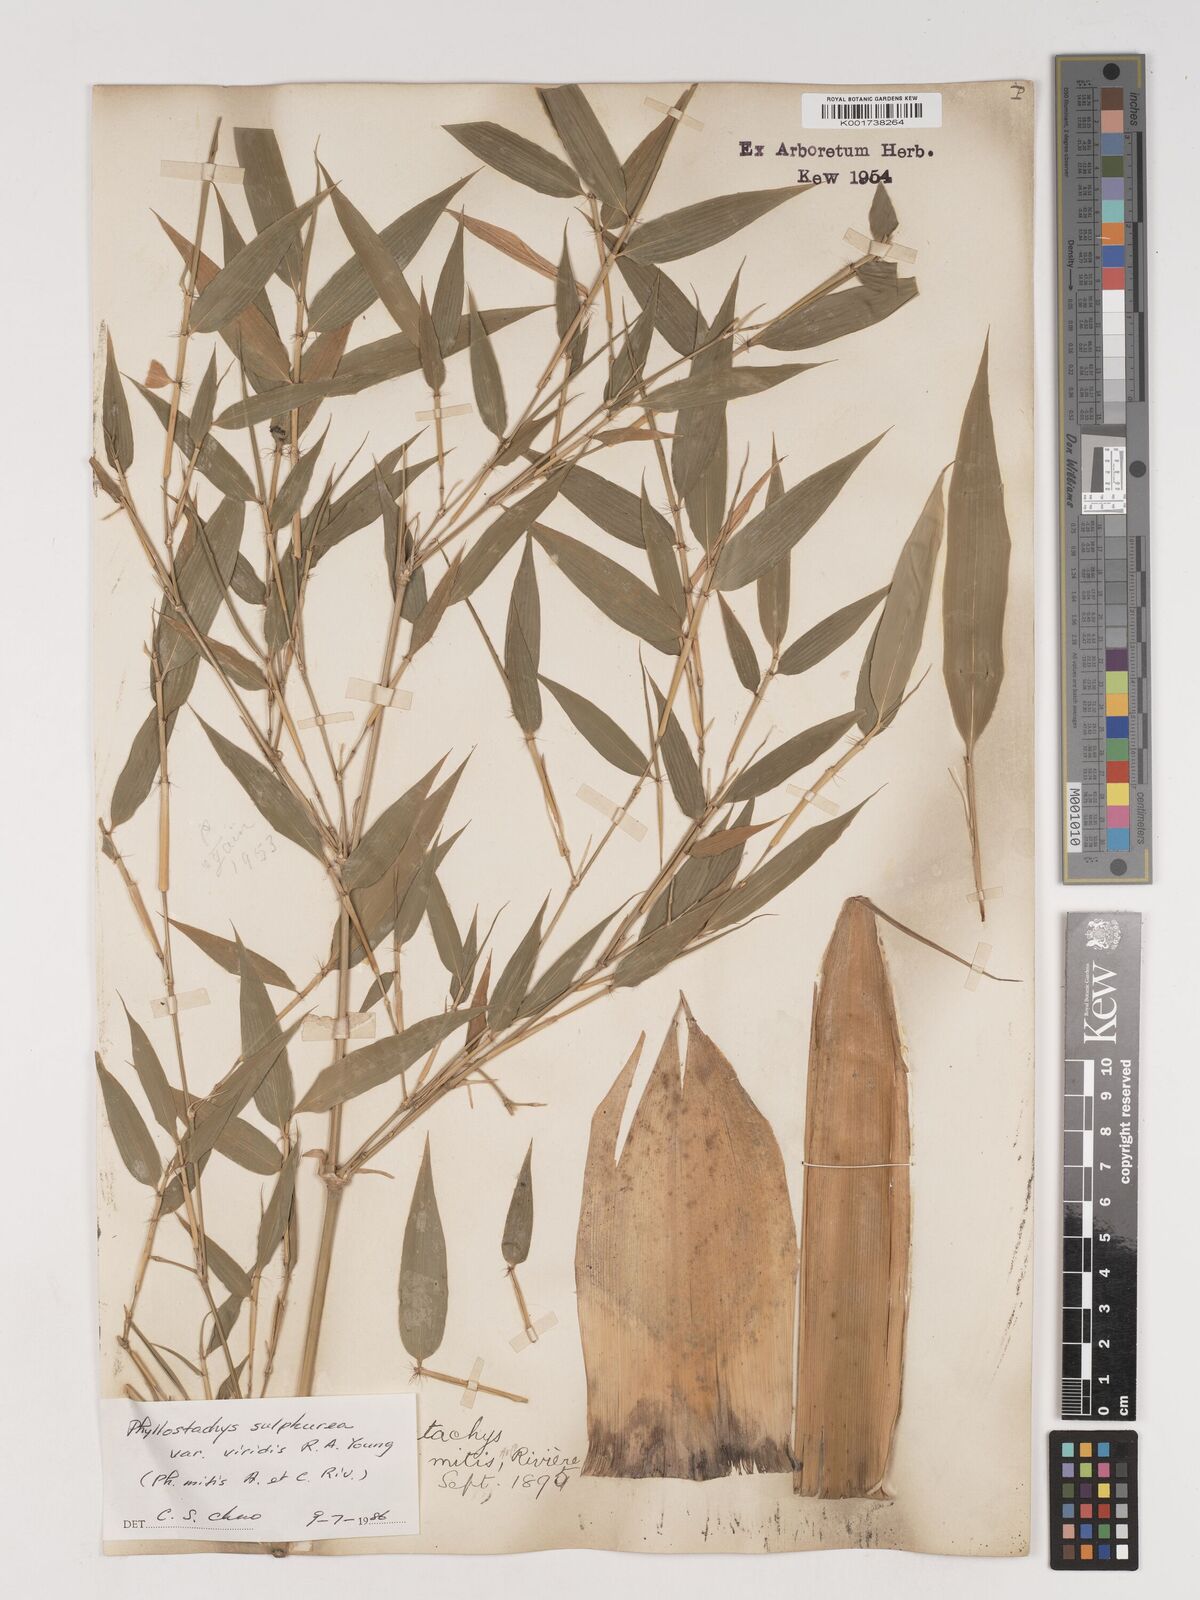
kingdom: Plantae
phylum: Tracheophyta
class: Liliopsida
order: Poales
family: Poaceae
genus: Phyllostachys
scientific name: Phyllostachys sulphurea
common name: Sulphur bamboo
